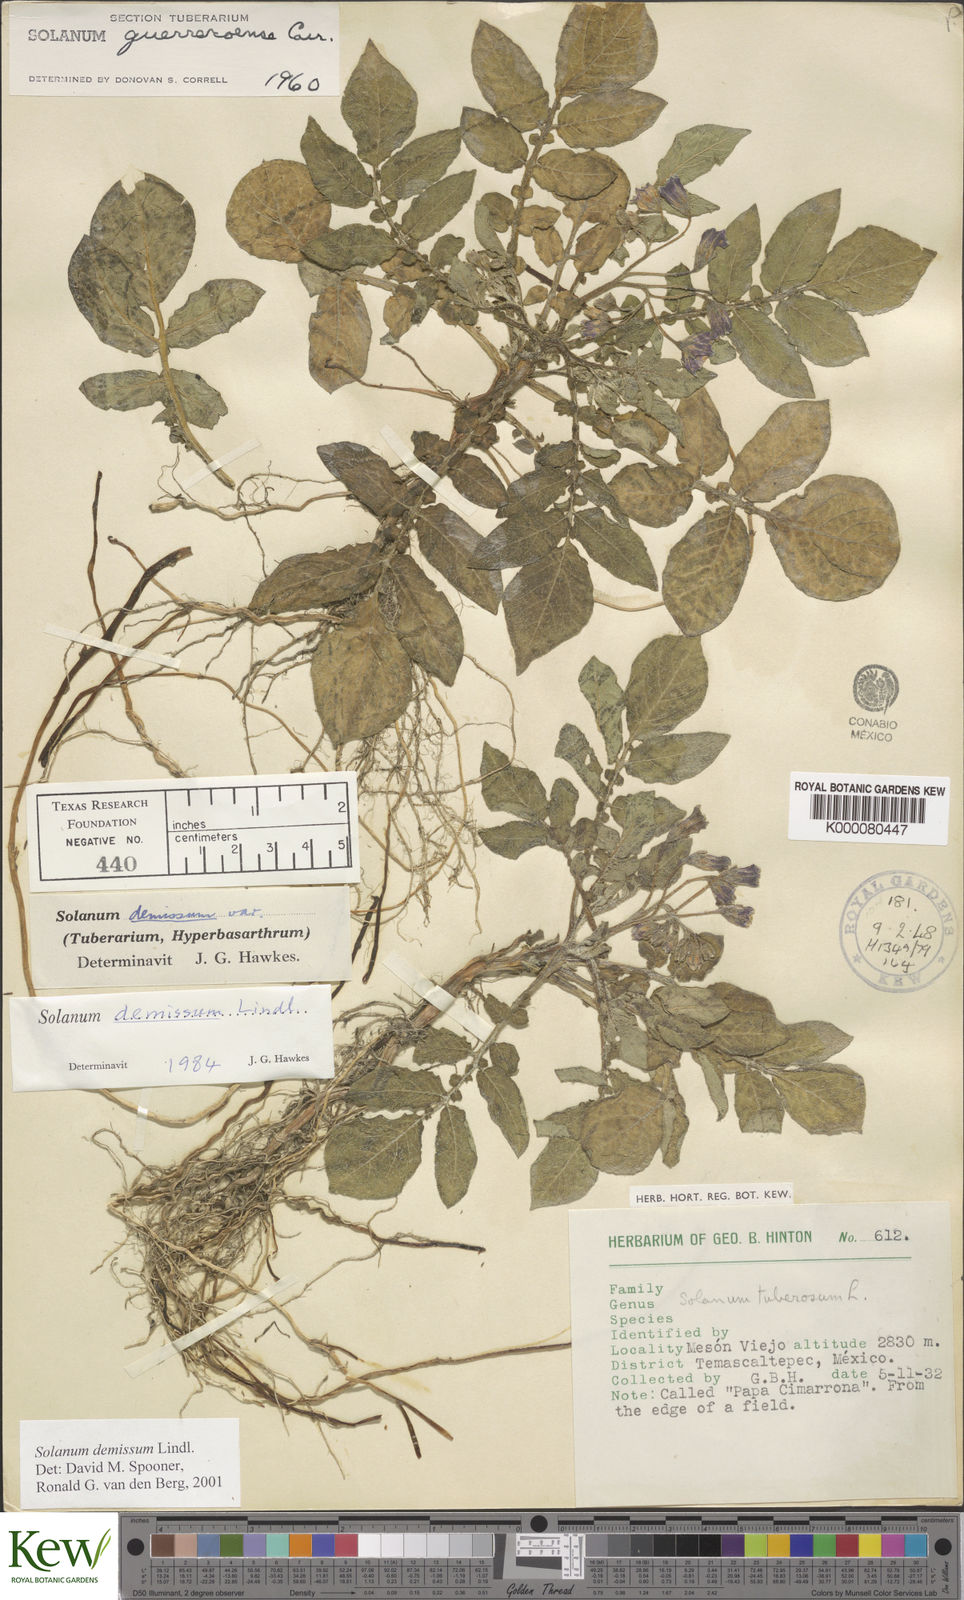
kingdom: Plantae
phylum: Tracheophyta
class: Magnoliopsida
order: Solanales
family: Solanaceae
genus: Solanum
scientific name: Solanum demissum
